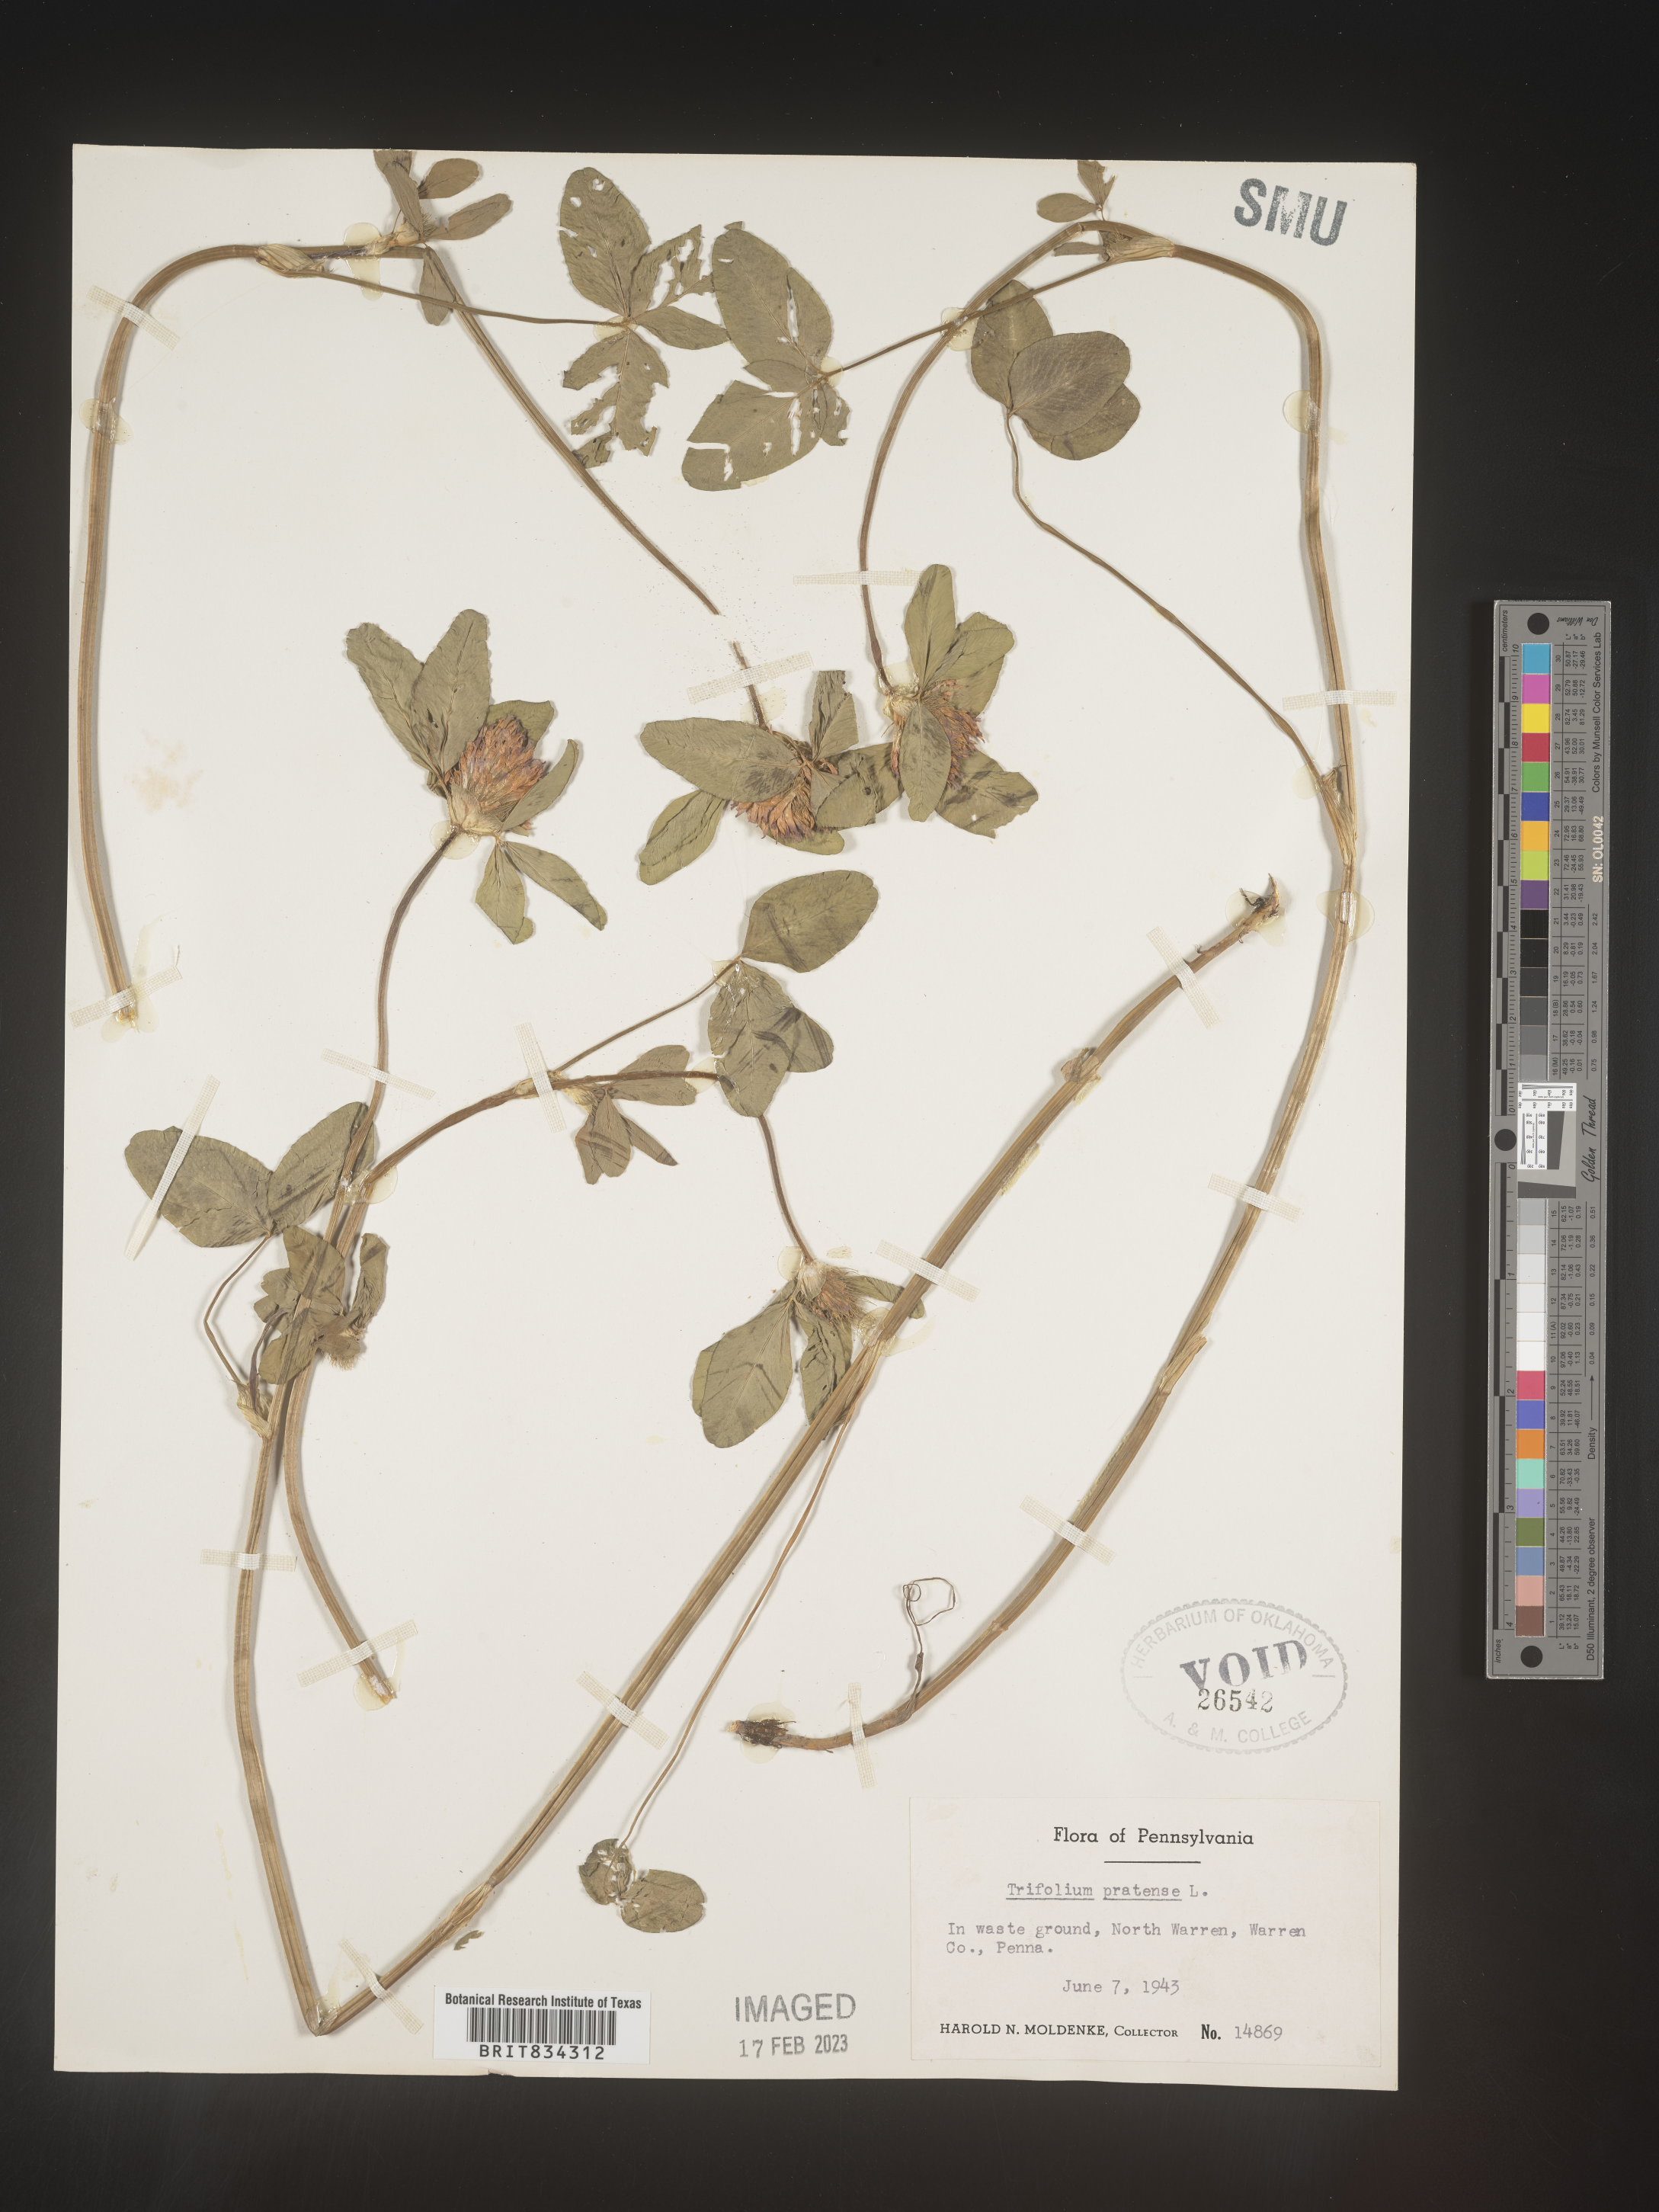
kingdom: Plantae
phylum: Tracheophyta
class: Magnoliopsida
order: Fabales
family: Fabaceae
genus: Trifolium
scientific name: Trifolium pratense
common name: Red clover
